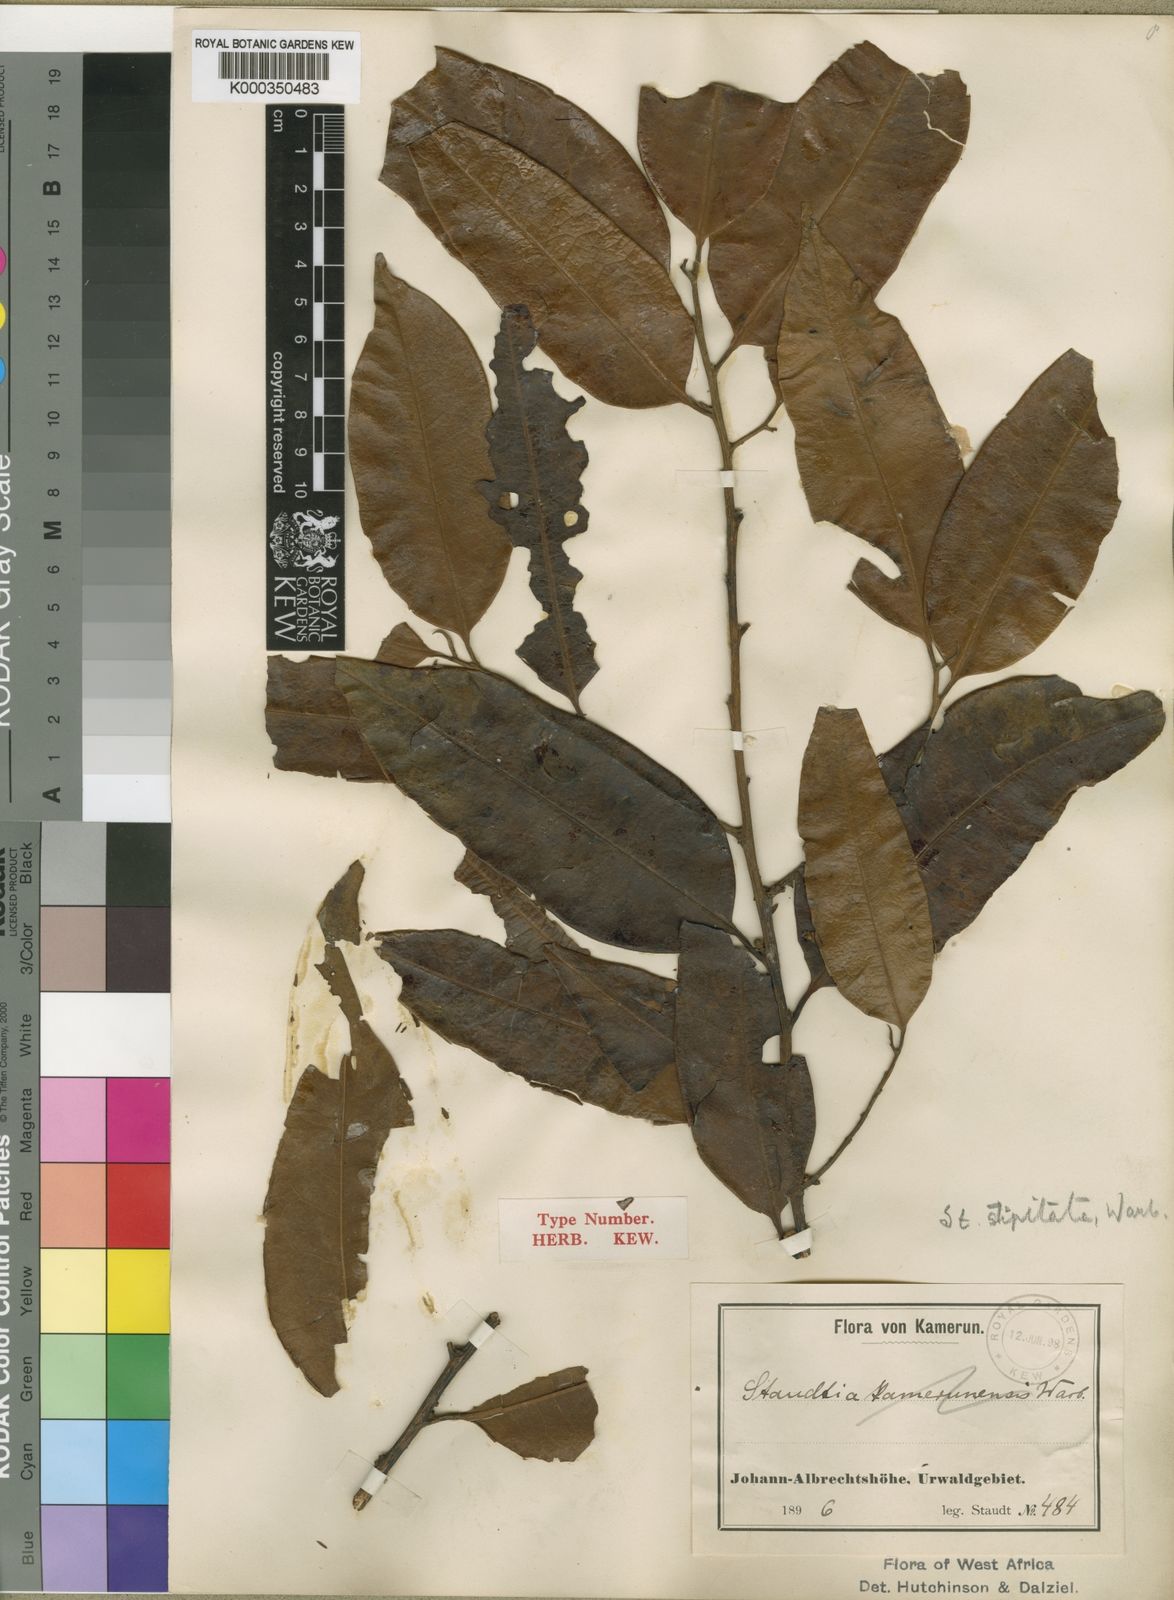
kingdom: Plantae
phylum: Tracheophyta
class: Magnoliopsida
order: Magnoliales
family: Myristicaceae
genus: Staudtia
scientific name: Staudtia kamerunensis
